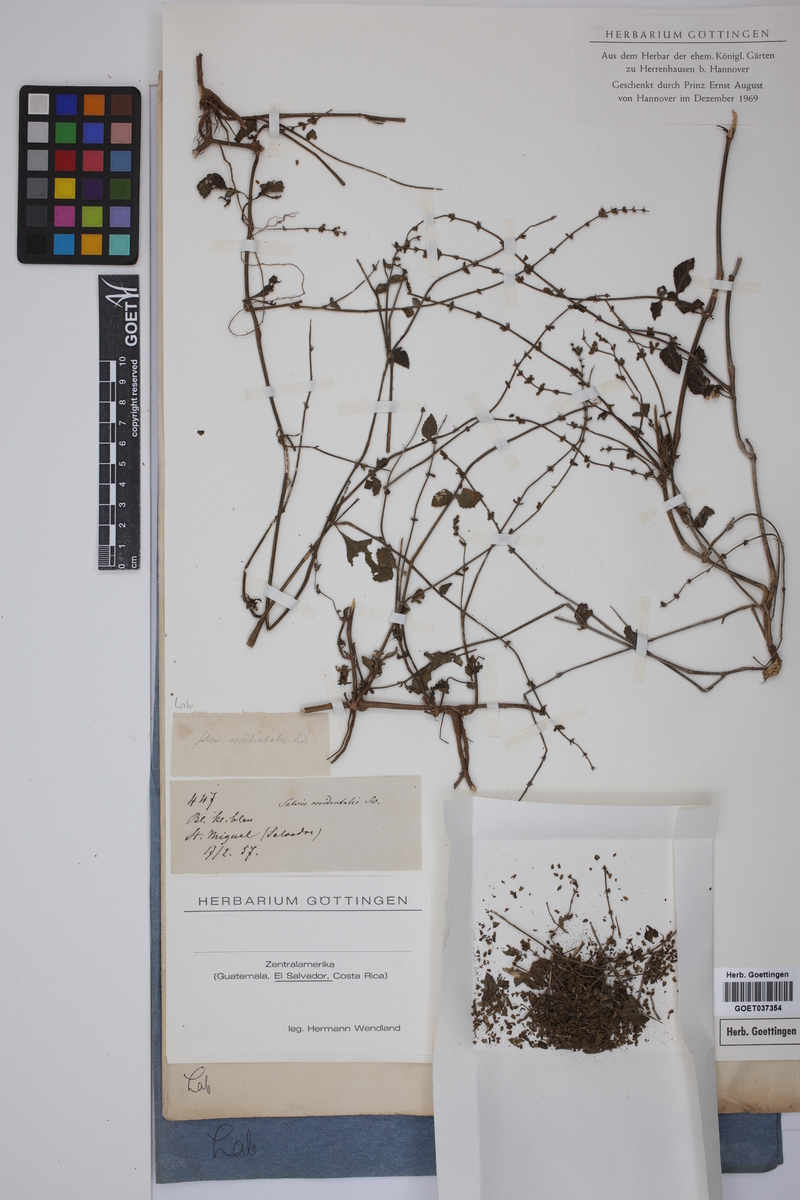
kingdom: Plantae
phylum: Tracheophyta
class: Magnoliopsida
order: Lamiales
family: Lamiaceae
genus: Salvia
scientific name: Salvia occidentalis
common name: West indian sage
